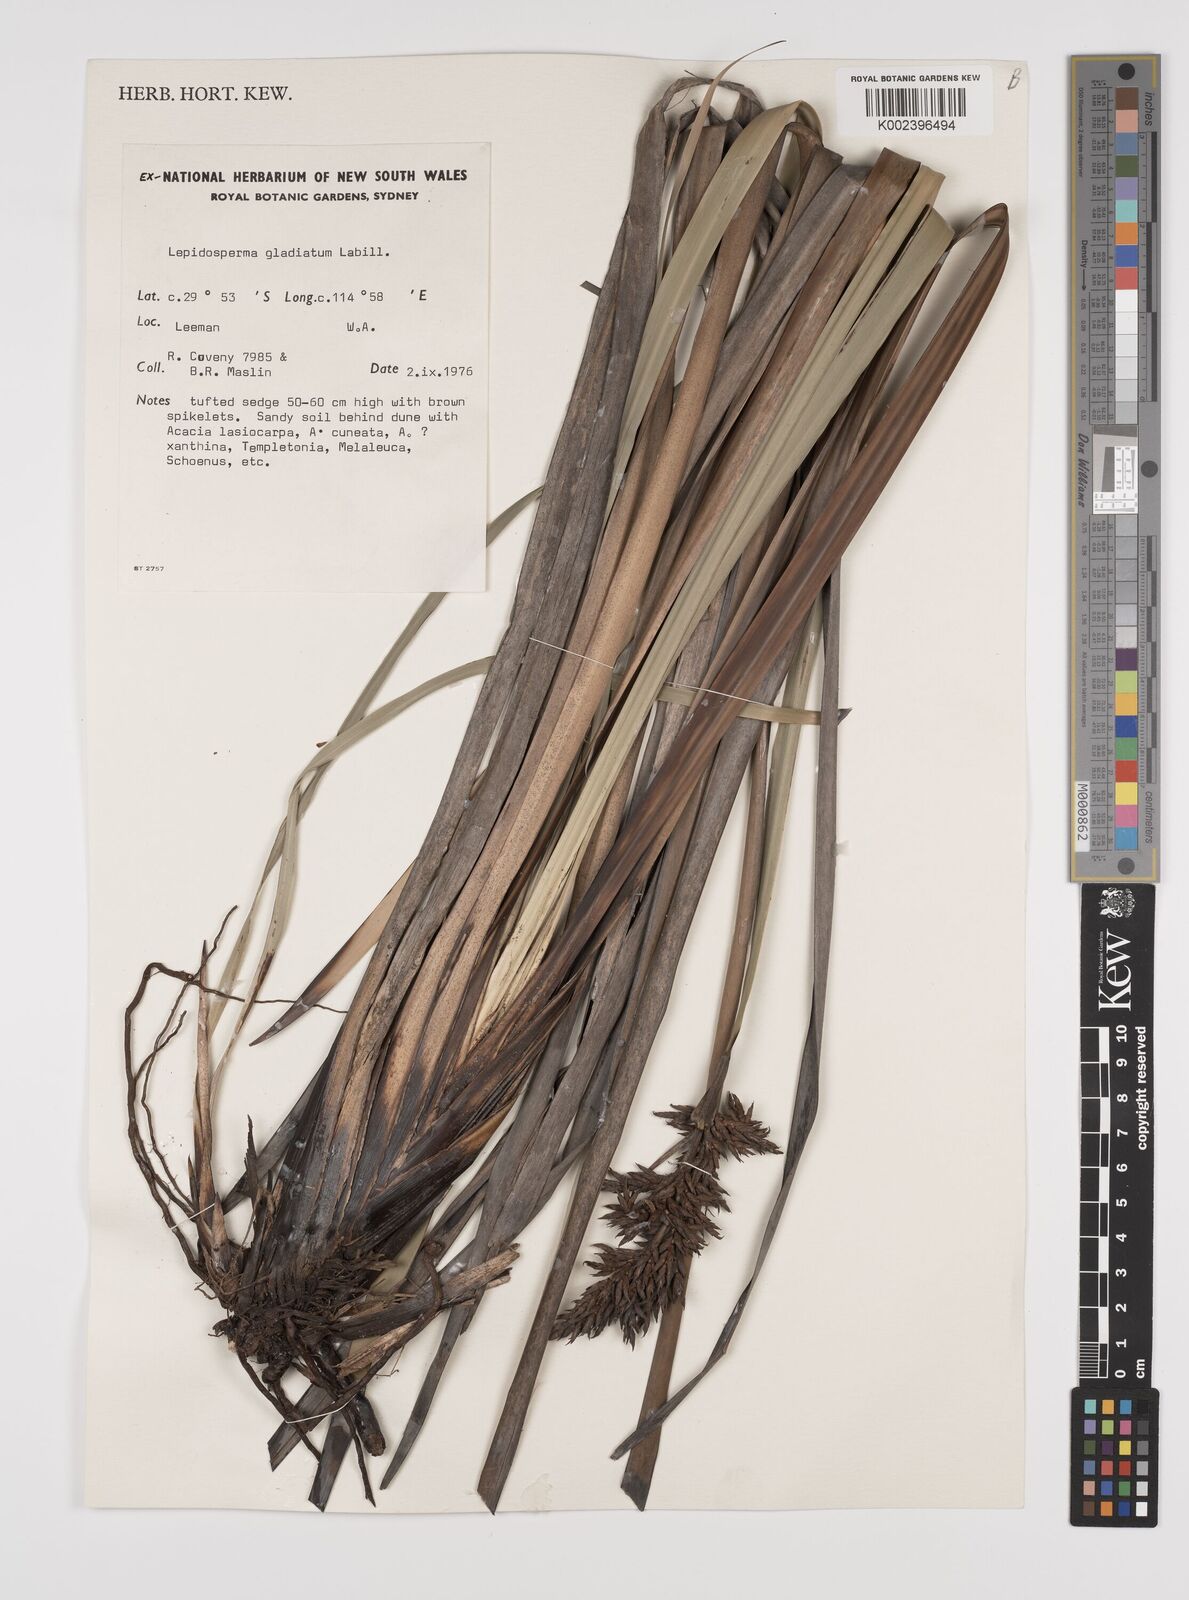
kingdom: Plantae
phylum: Tracheophyta
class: Liliopsida
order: Poales
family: Cyperaceae
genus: Lepidosperma
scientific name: Lepidosperma gladiatum
